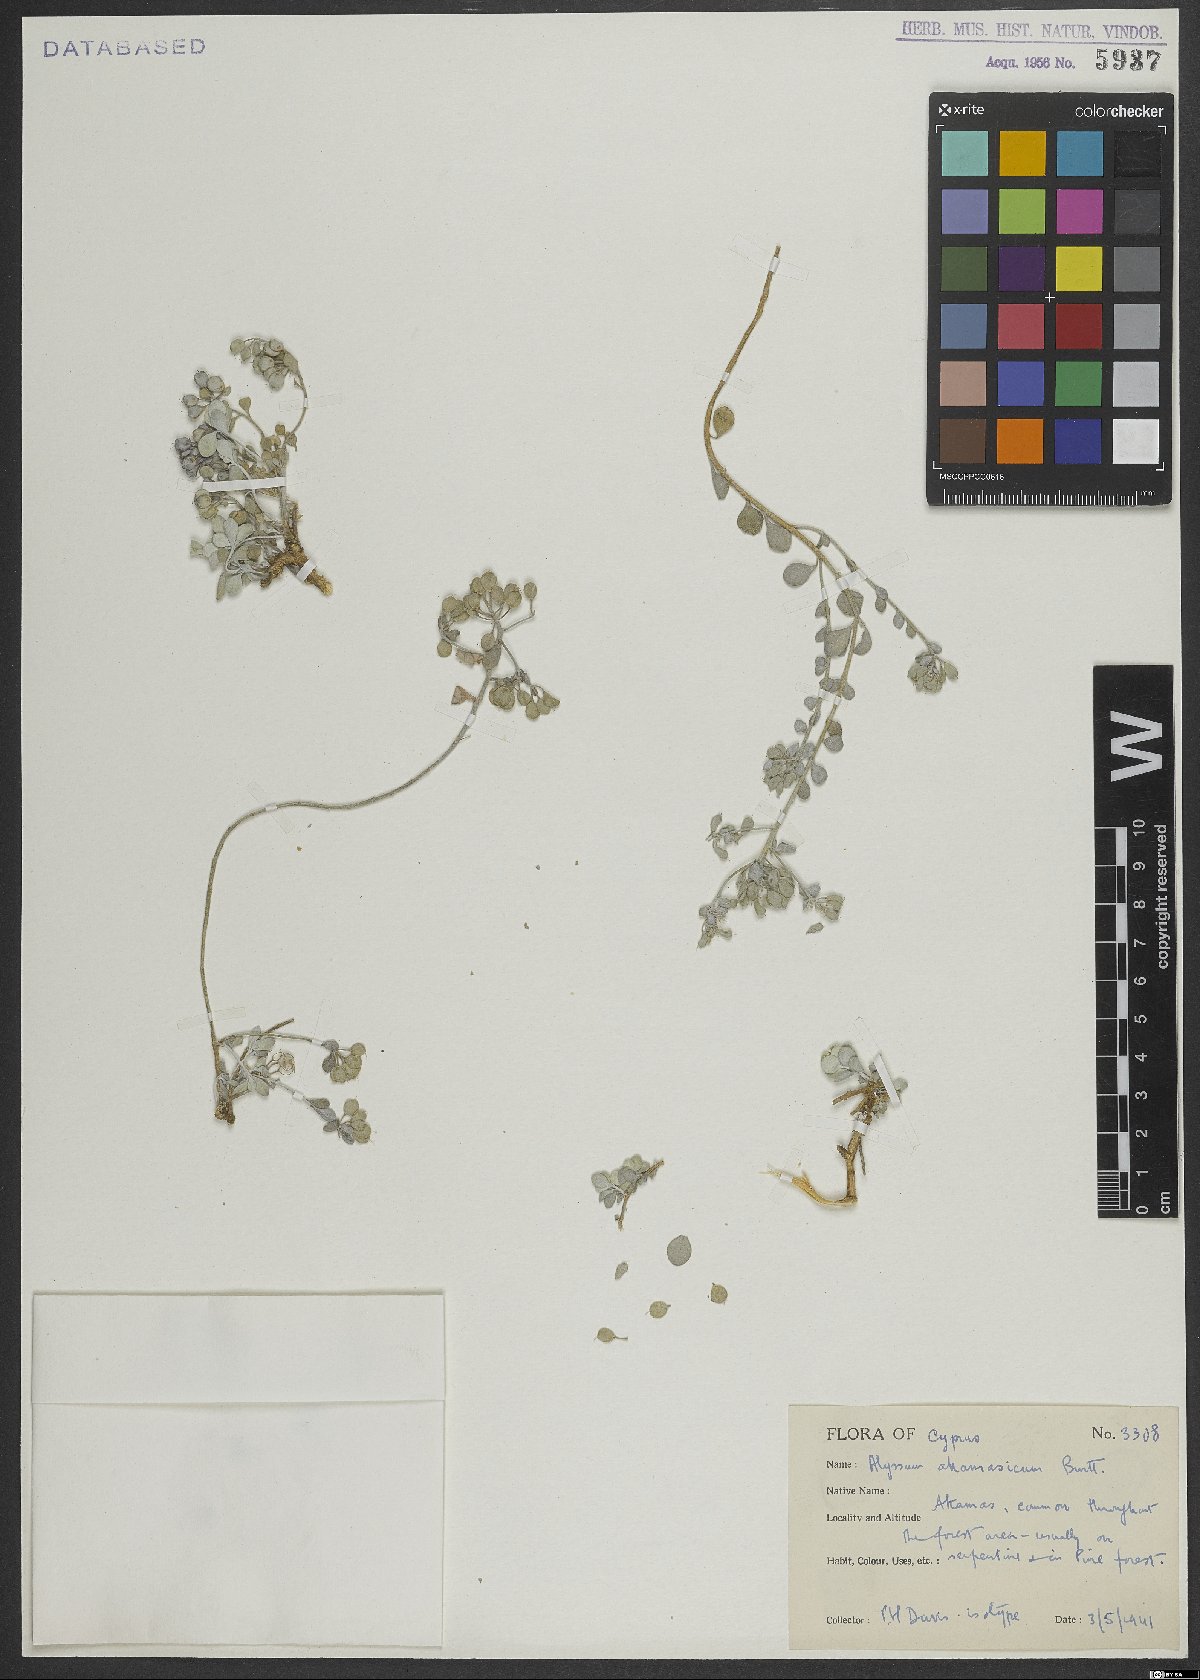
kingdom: Plantae
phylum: Tracheophyta
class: Magnoliopsida
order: Brassicales
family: Brassicaceae
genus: Odontarrhena
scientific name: Odontarrhena akamasica
